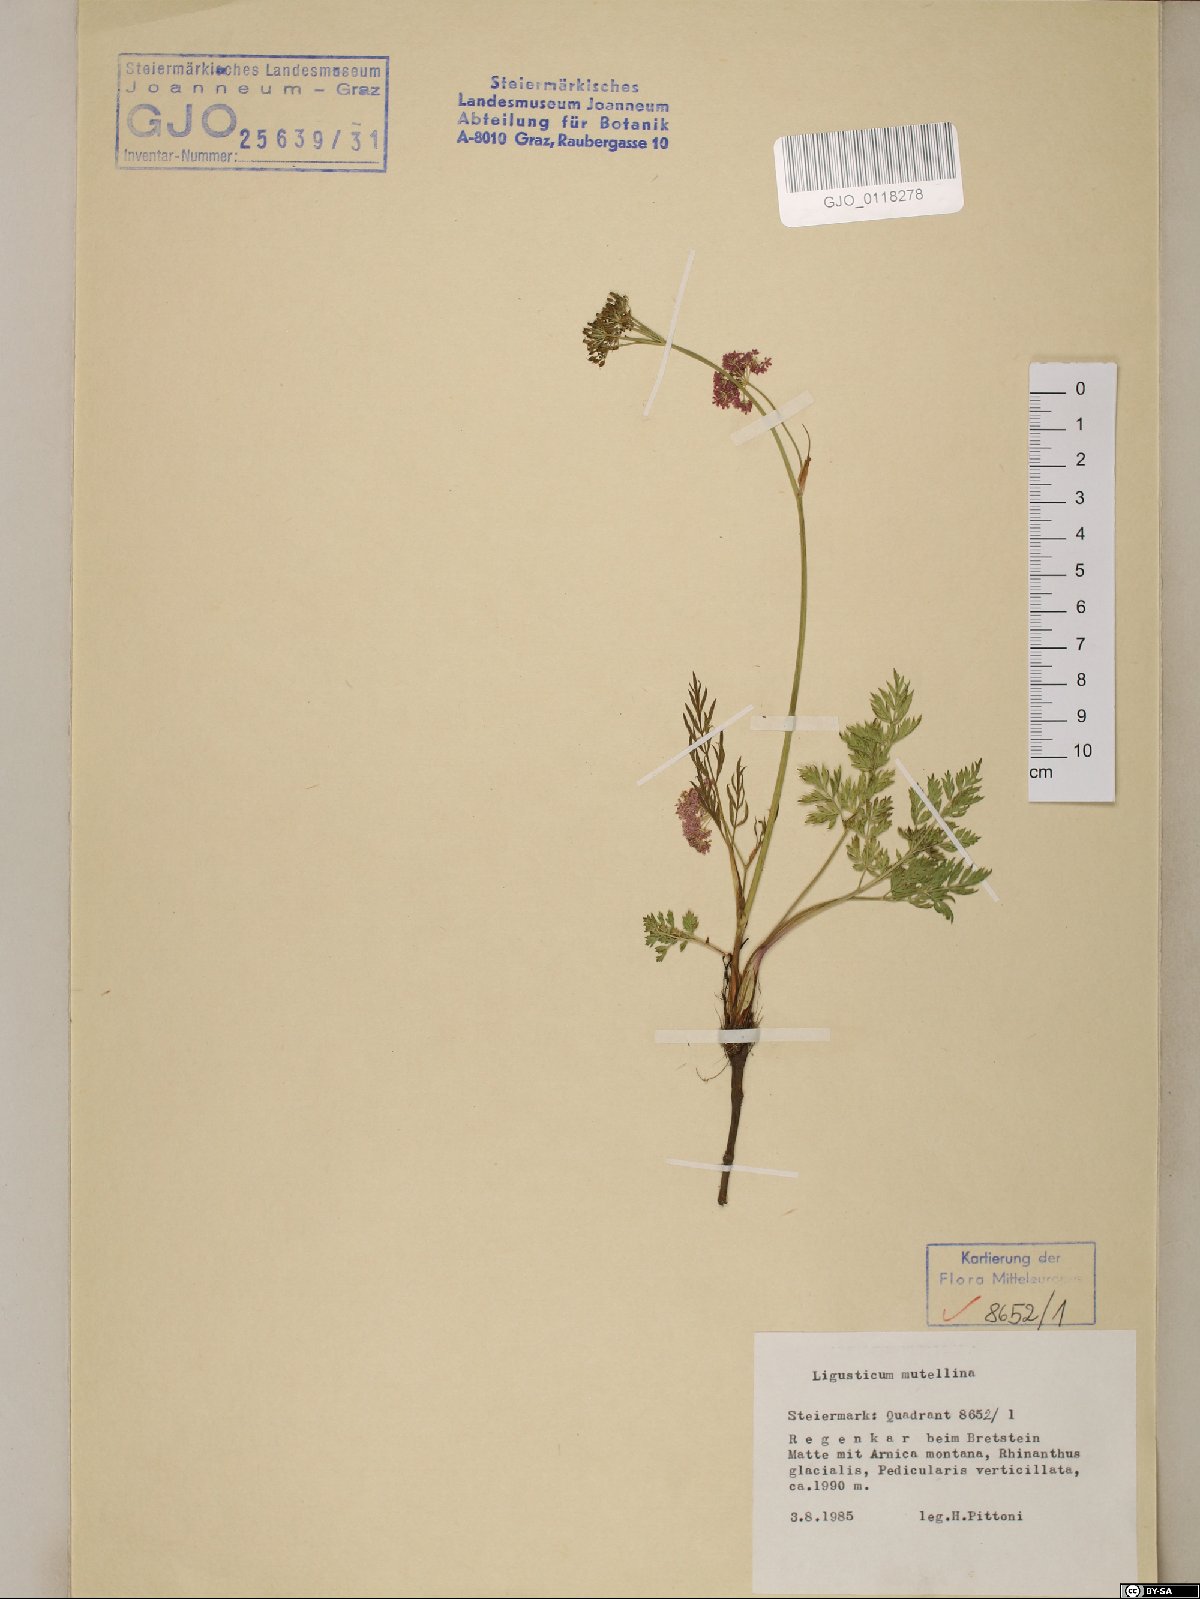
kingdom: Plantae
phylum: Tracheophyta
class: Magnoliopsida
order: Apiales
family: Apiaceae
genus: Mutellina
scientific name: Mutellina adonidifolia
